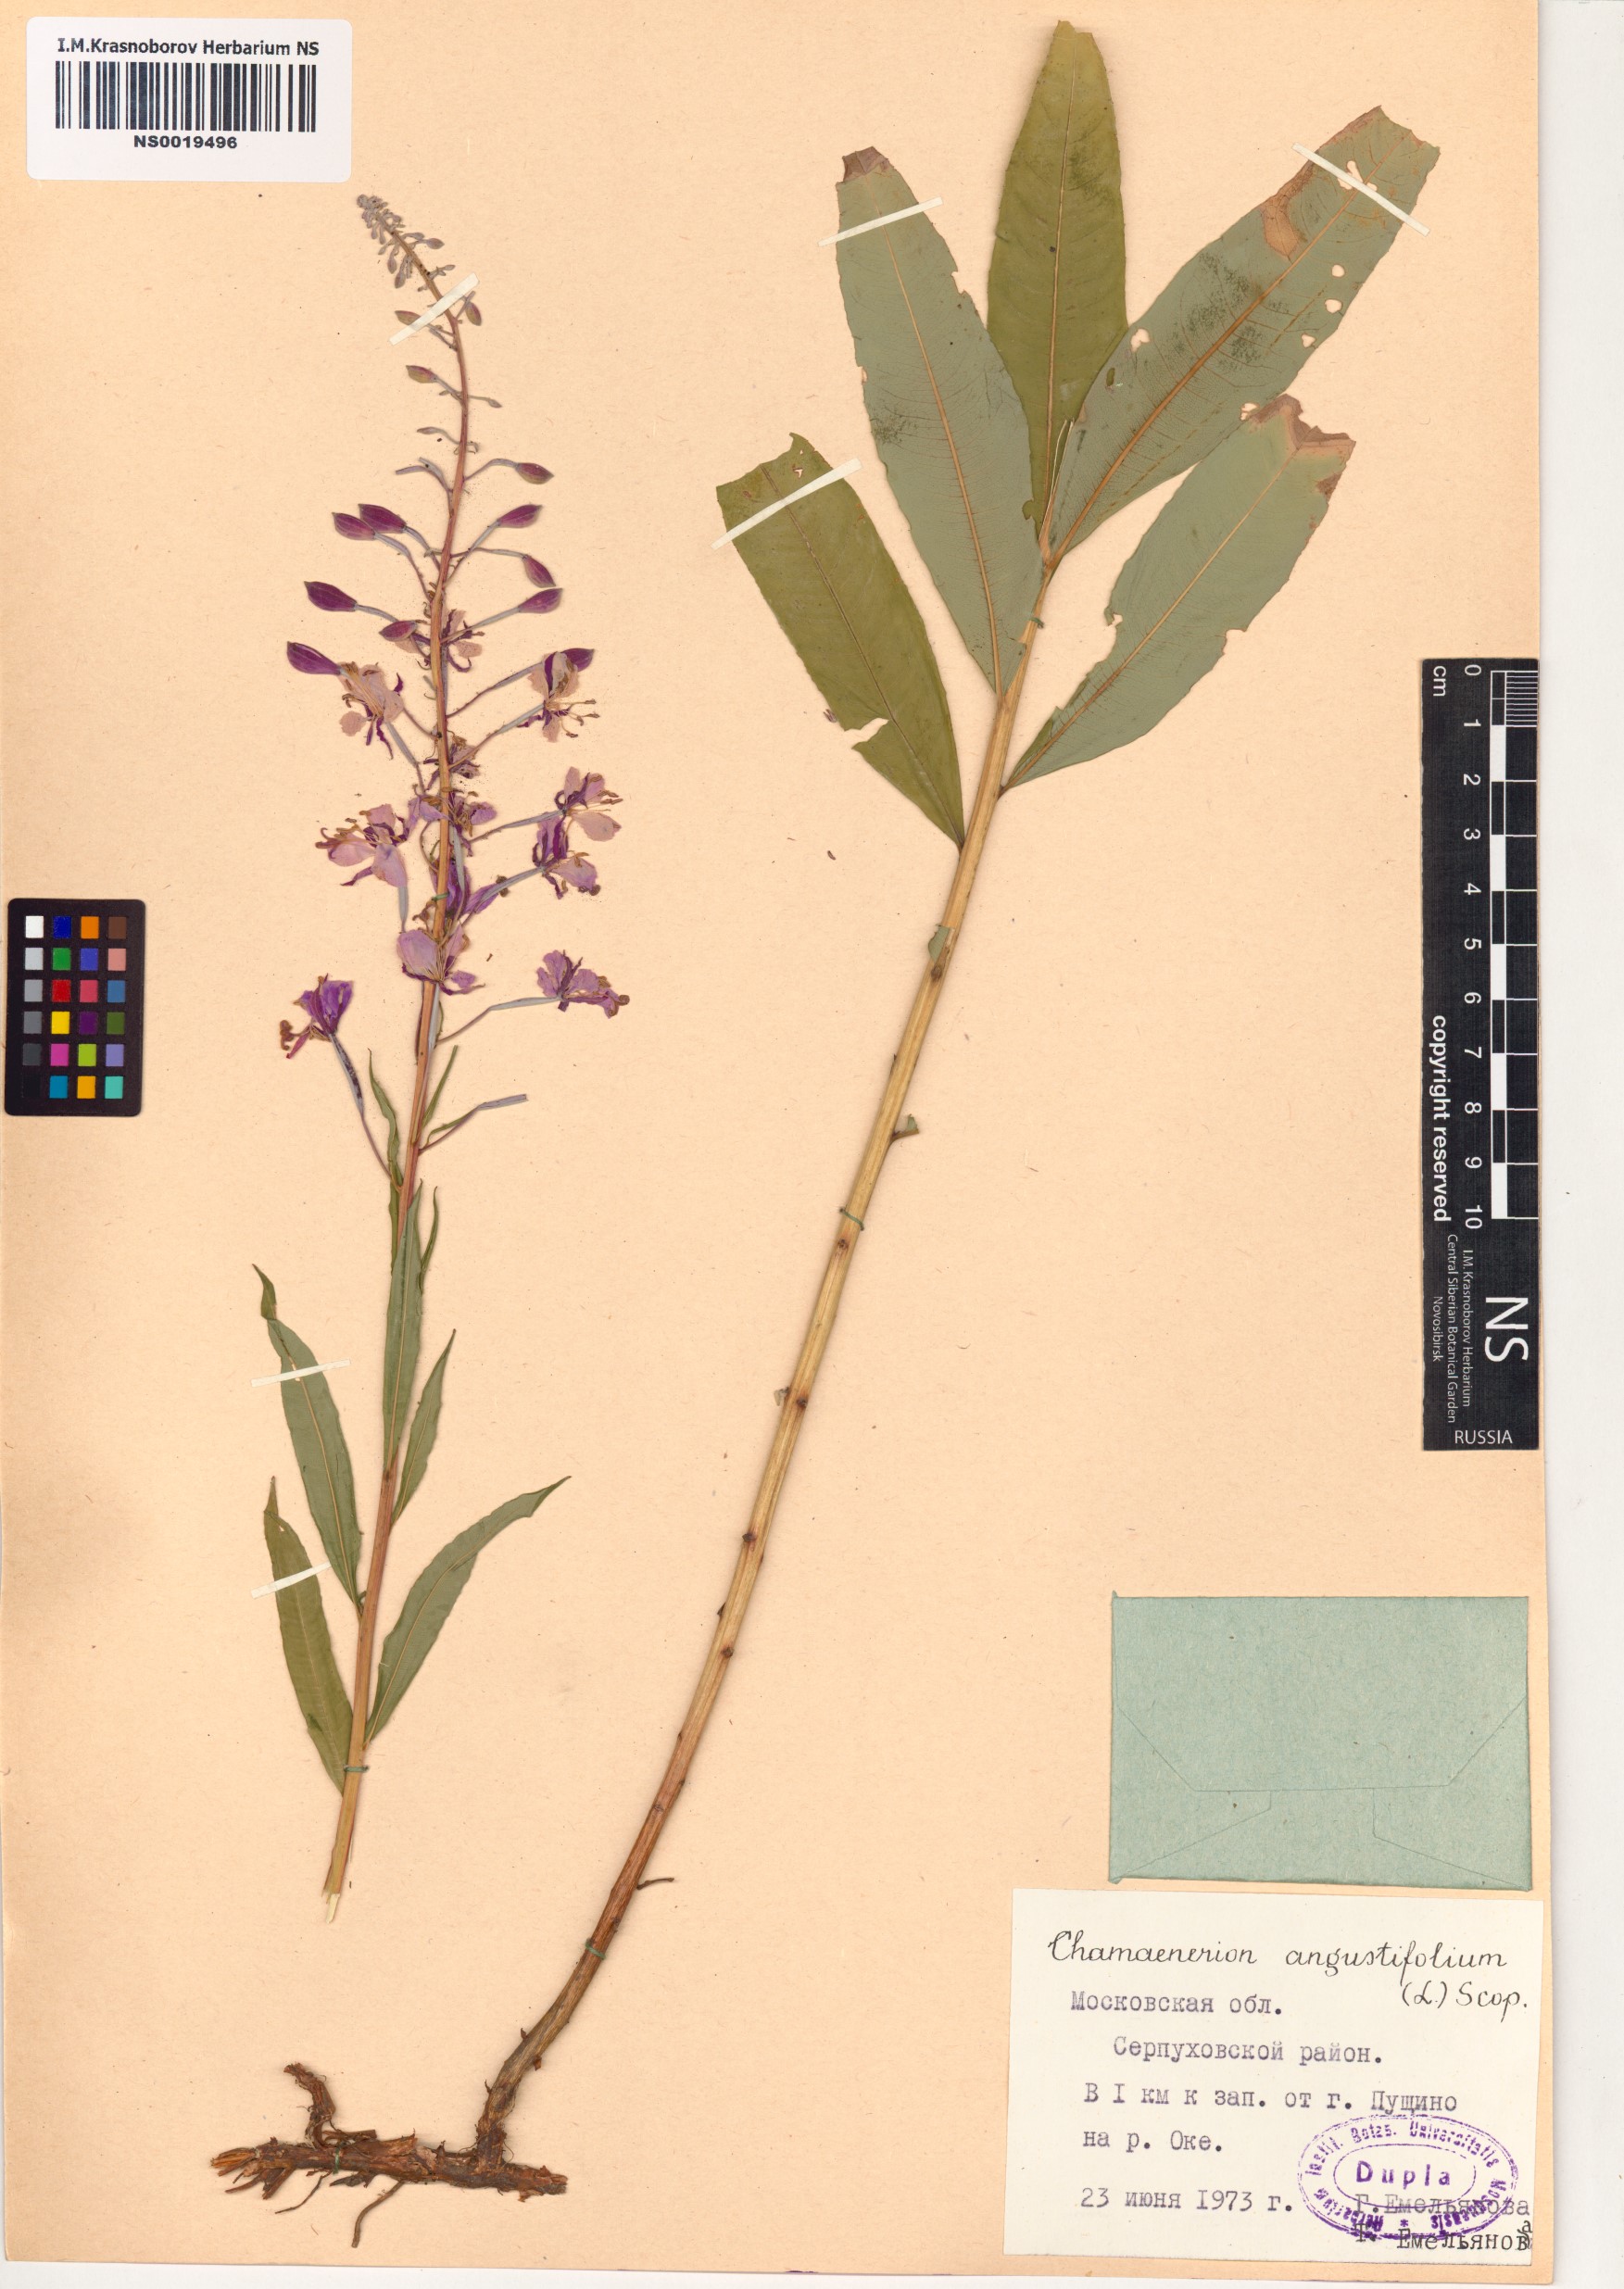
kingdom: Plantae
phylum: Tracheophyta
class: Magnoliopsida
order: Myrtales
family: Onagraceae
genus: Chamaenerion
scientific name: Chamaenerion angustifolium
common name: Fireweed
